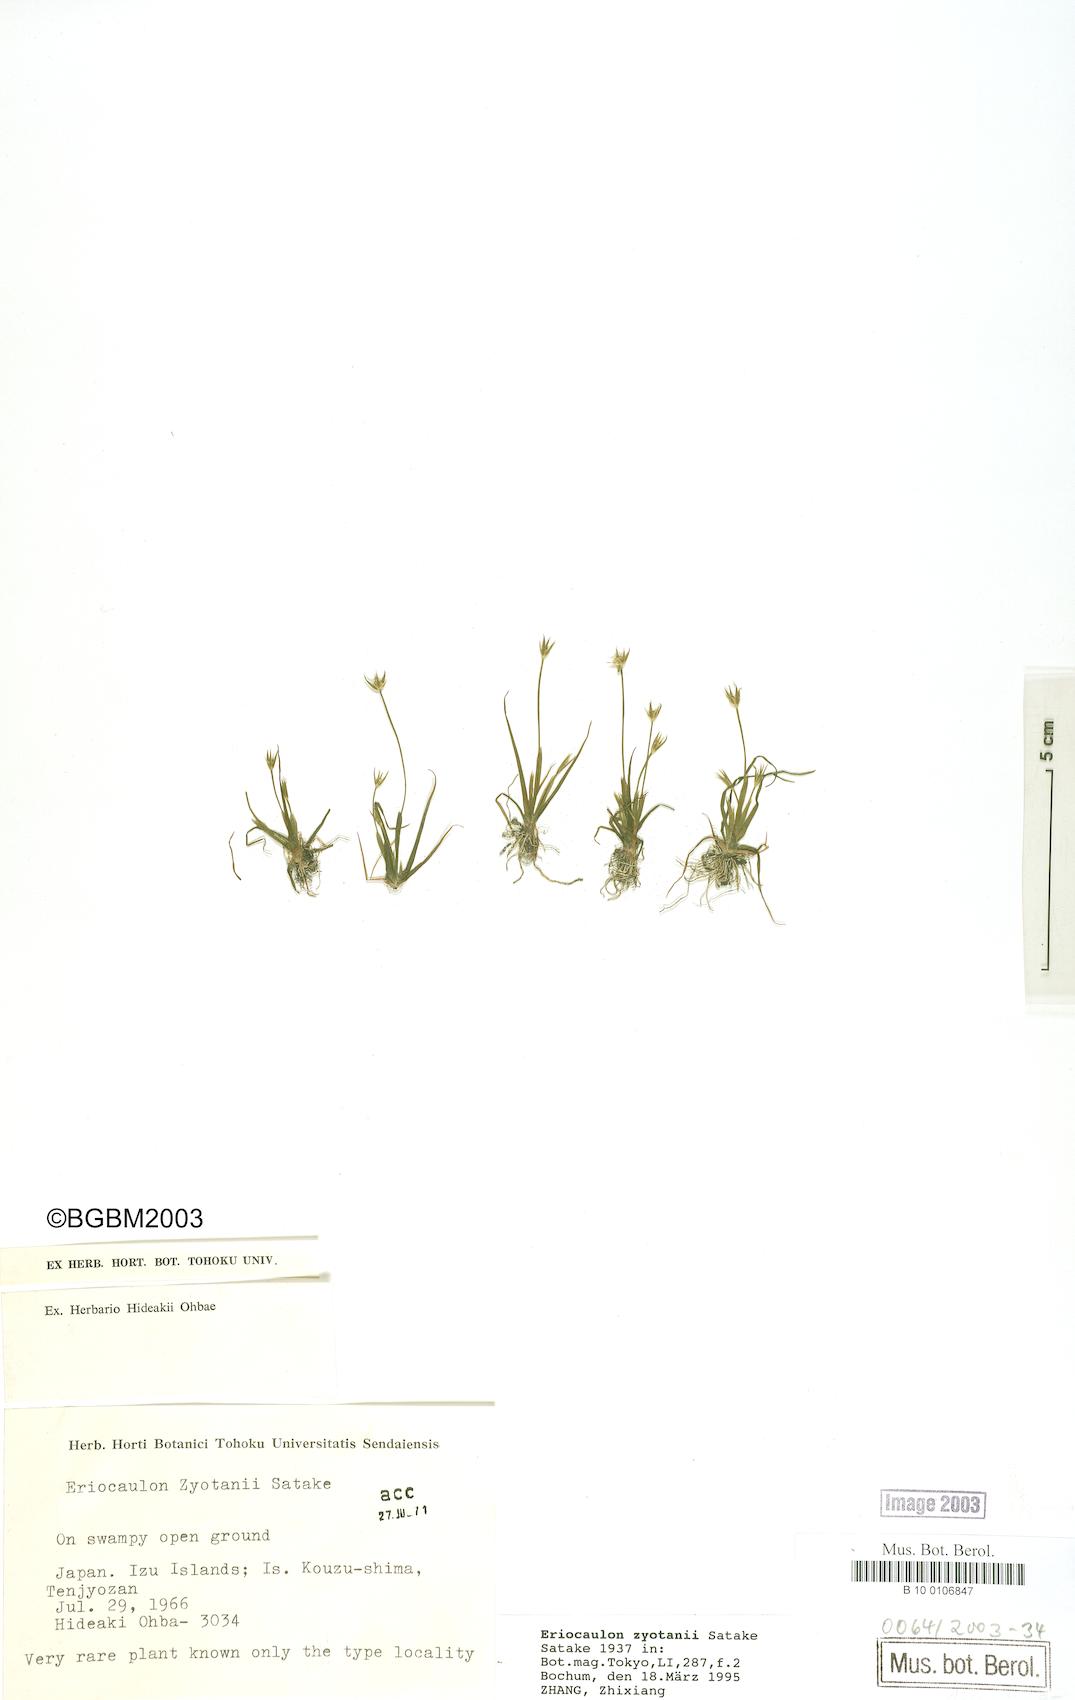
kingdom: Plantae
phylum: Tracheophyta
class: Liliopsida
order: Poales
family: Eriocaulaceae
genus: Eriocaulon
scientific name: Eriocaulon zyotanii
